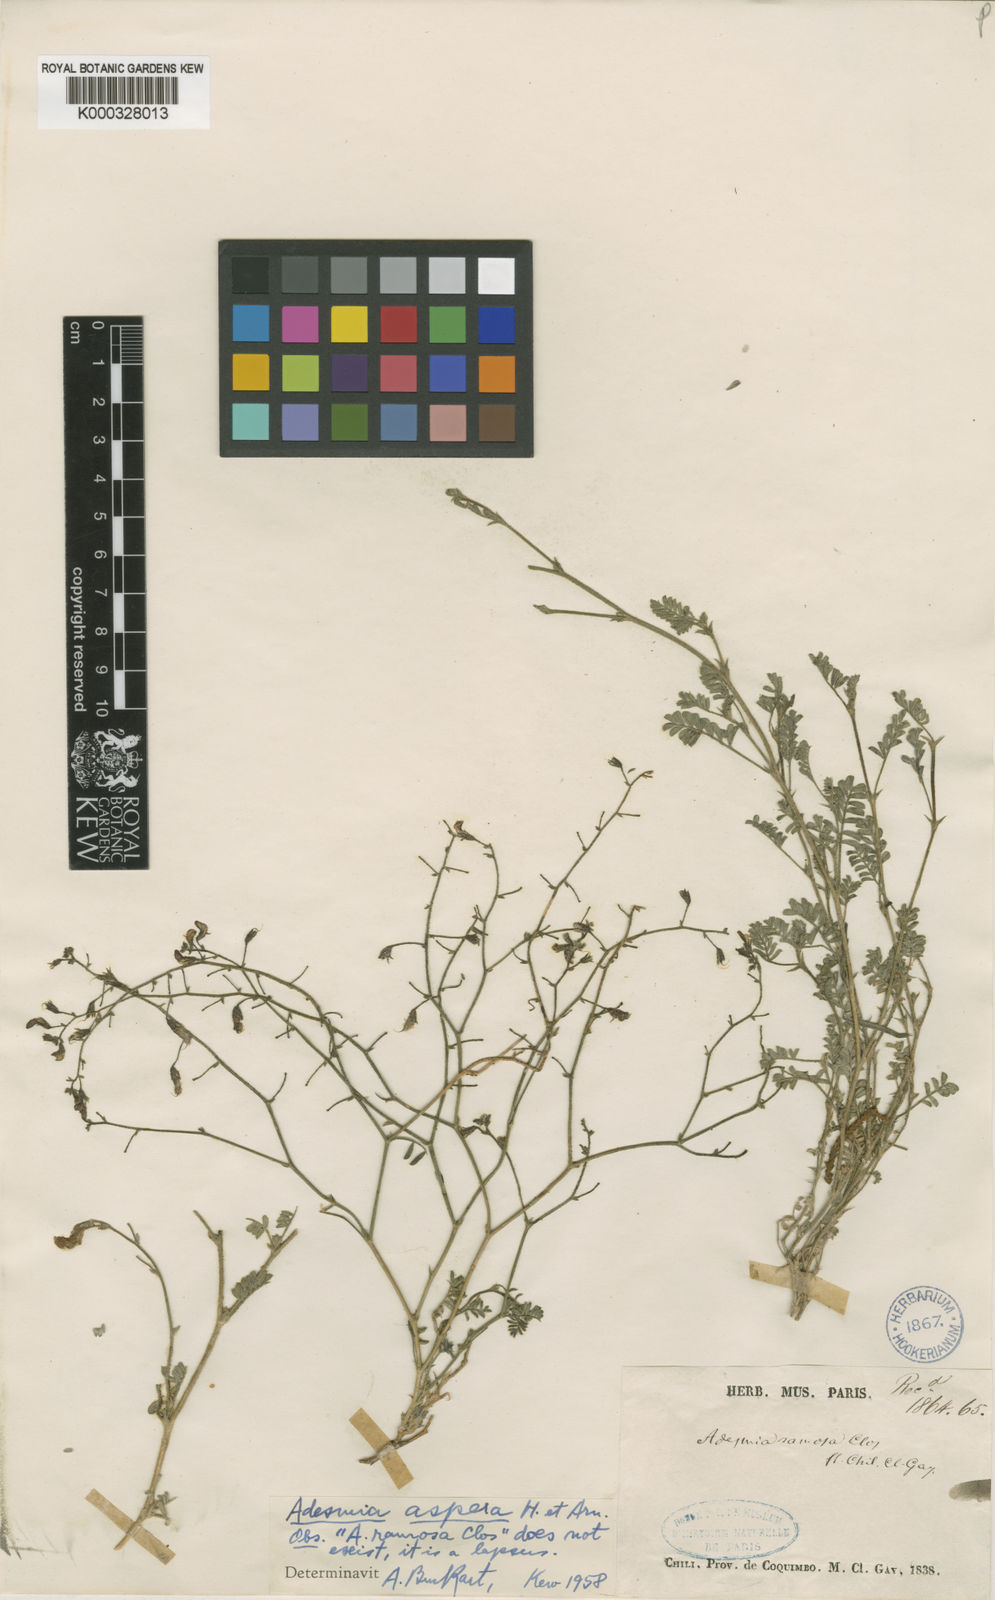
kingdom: Plantae
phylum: Tracheophyta
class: Magnoliopsida
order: Fabales
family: Fabaceae
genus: Adesmia
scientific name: Adesmia
